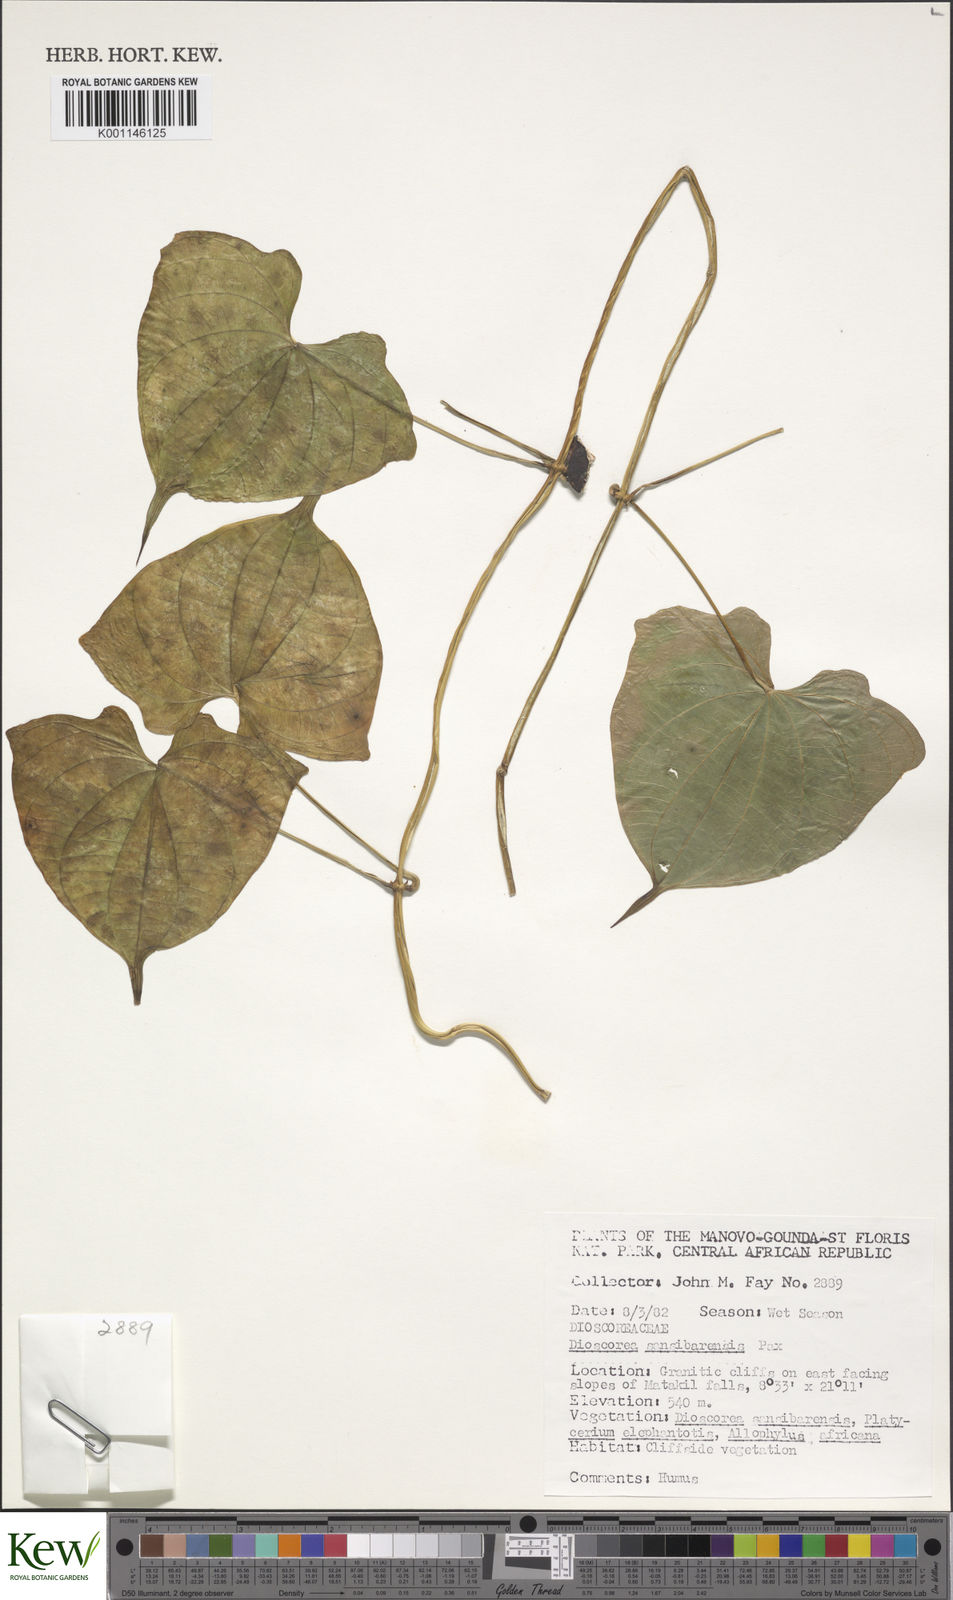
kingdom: Plantae
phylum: Tracheophyta
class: Liliopsida
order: Dioscoreales
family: Dioscoreaceae
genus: Dioscorea
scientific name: Dioscorea sansibarensis
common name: Zanzibar yam
